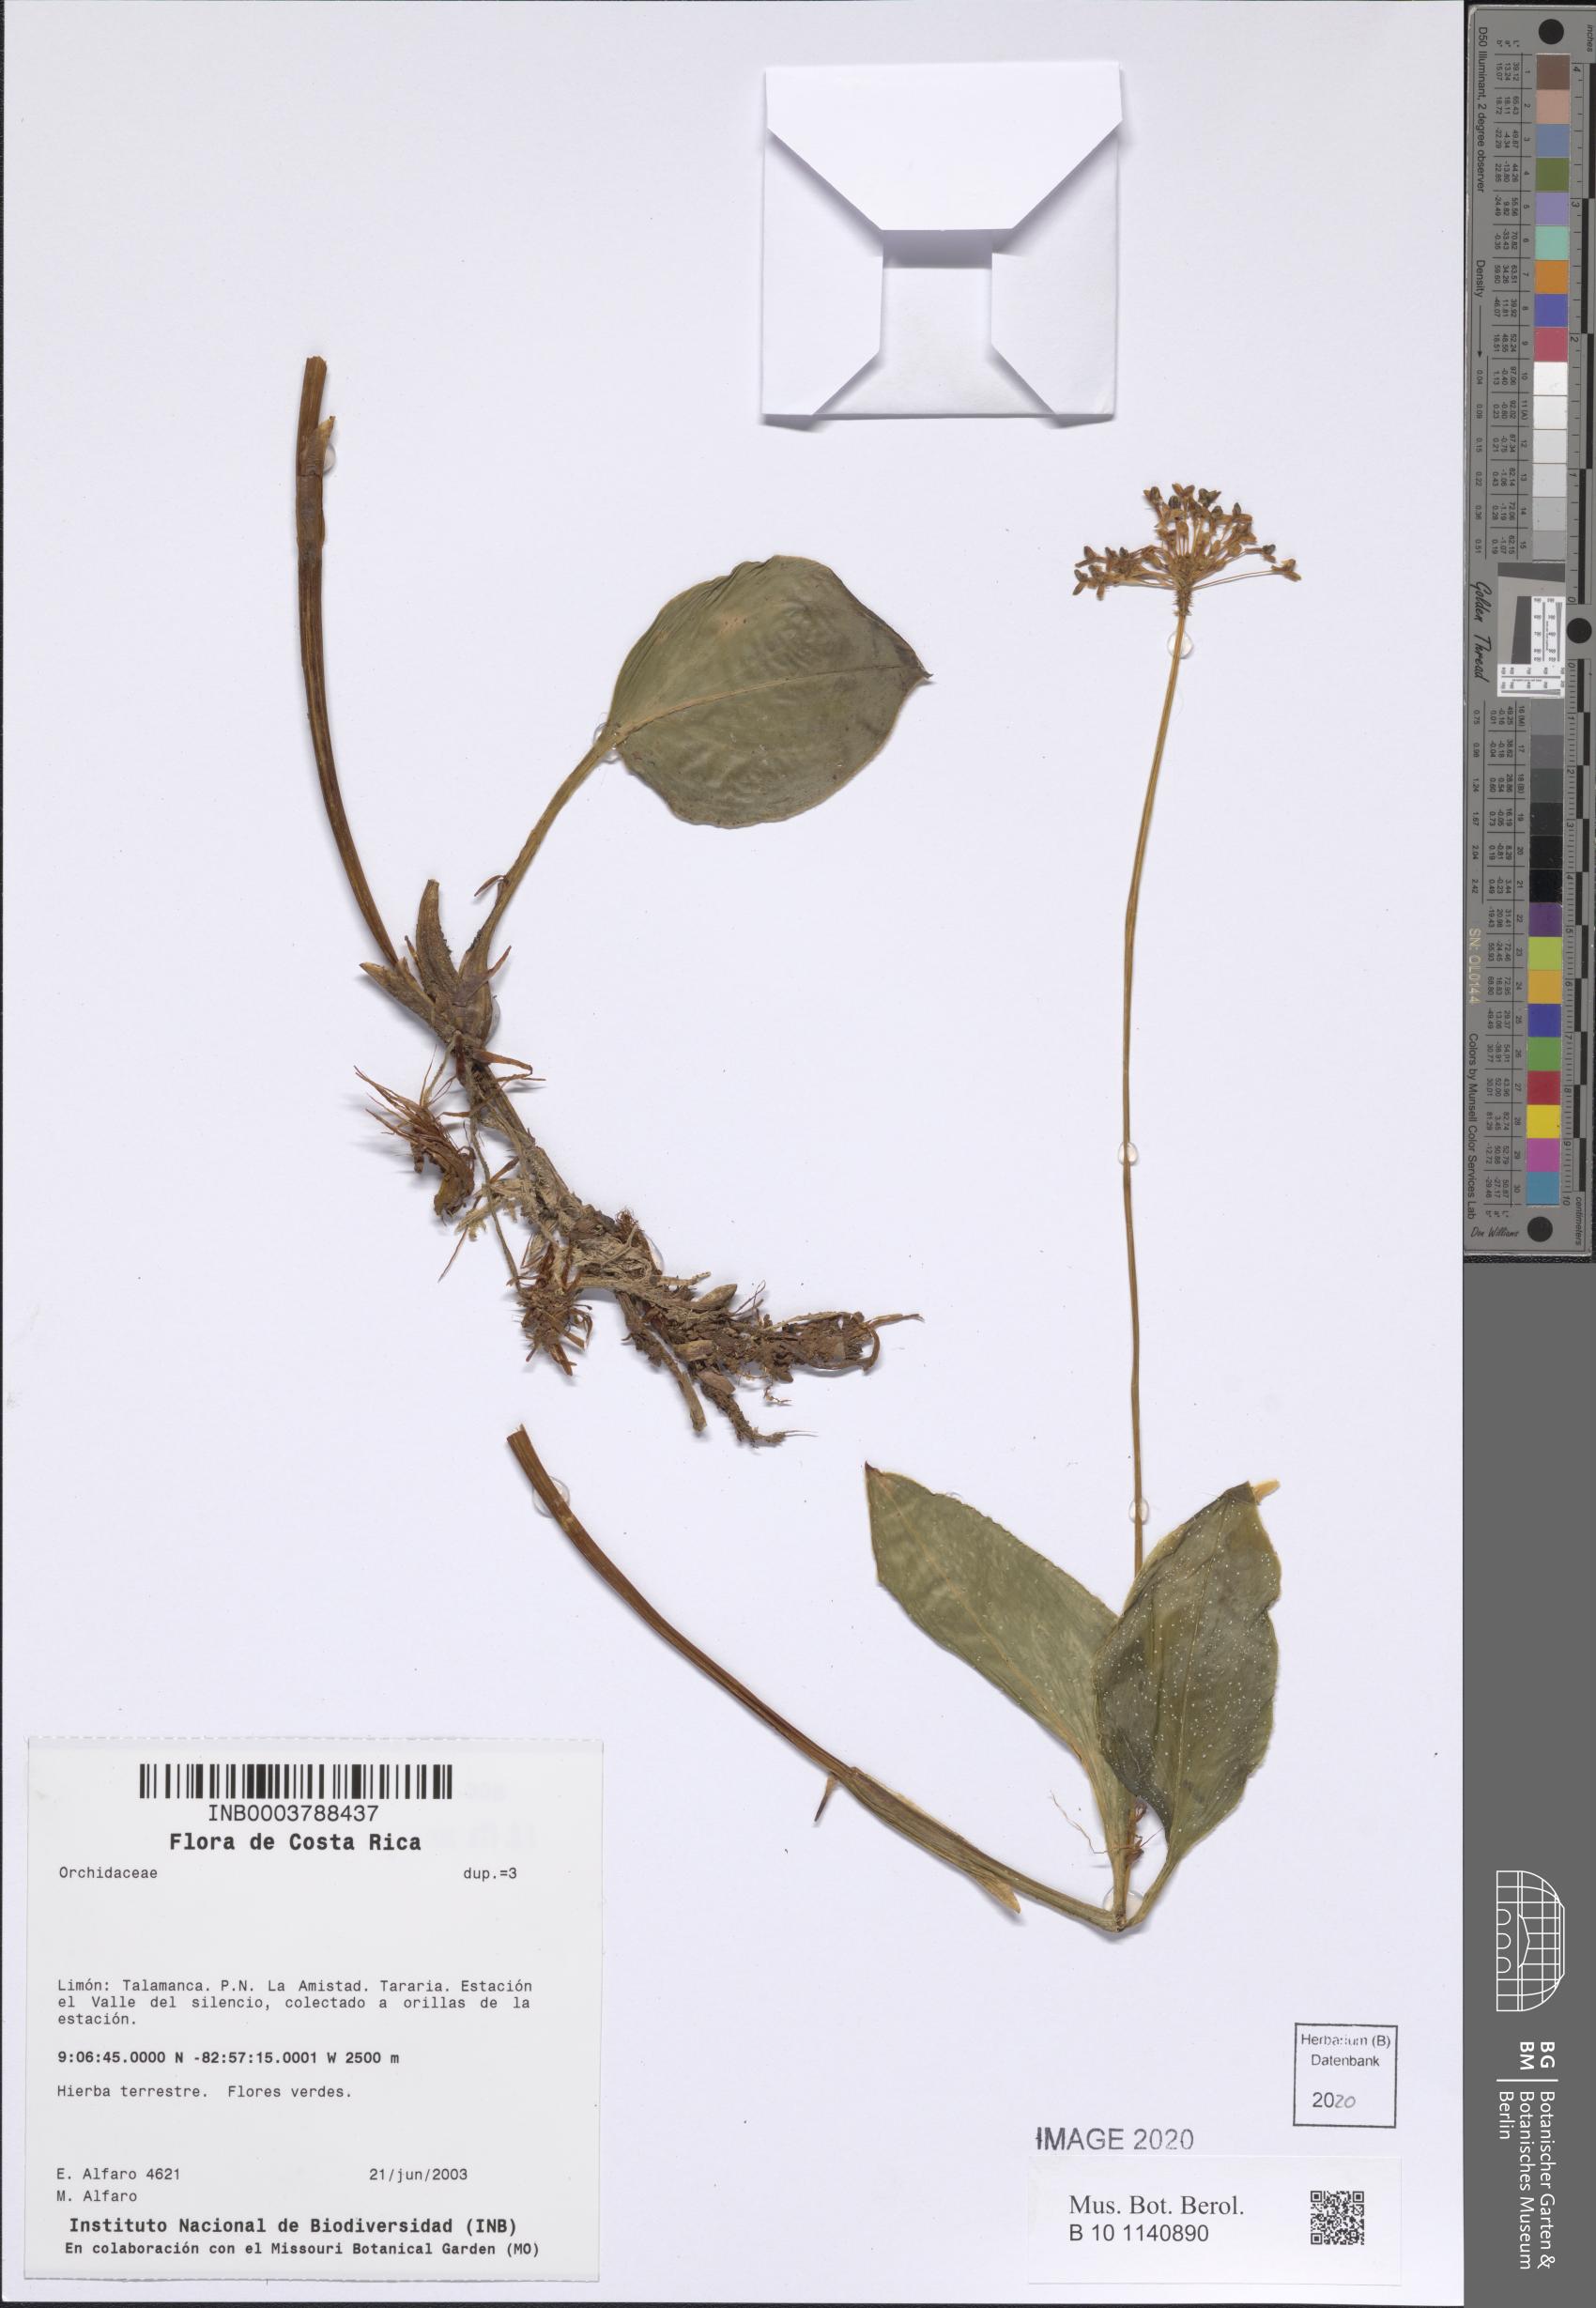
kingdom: Plantae
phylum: Tracheophyta
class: Liliopsida
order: Asparagales
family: Orchidaceae
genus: Malaxis
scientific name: Malaxis
